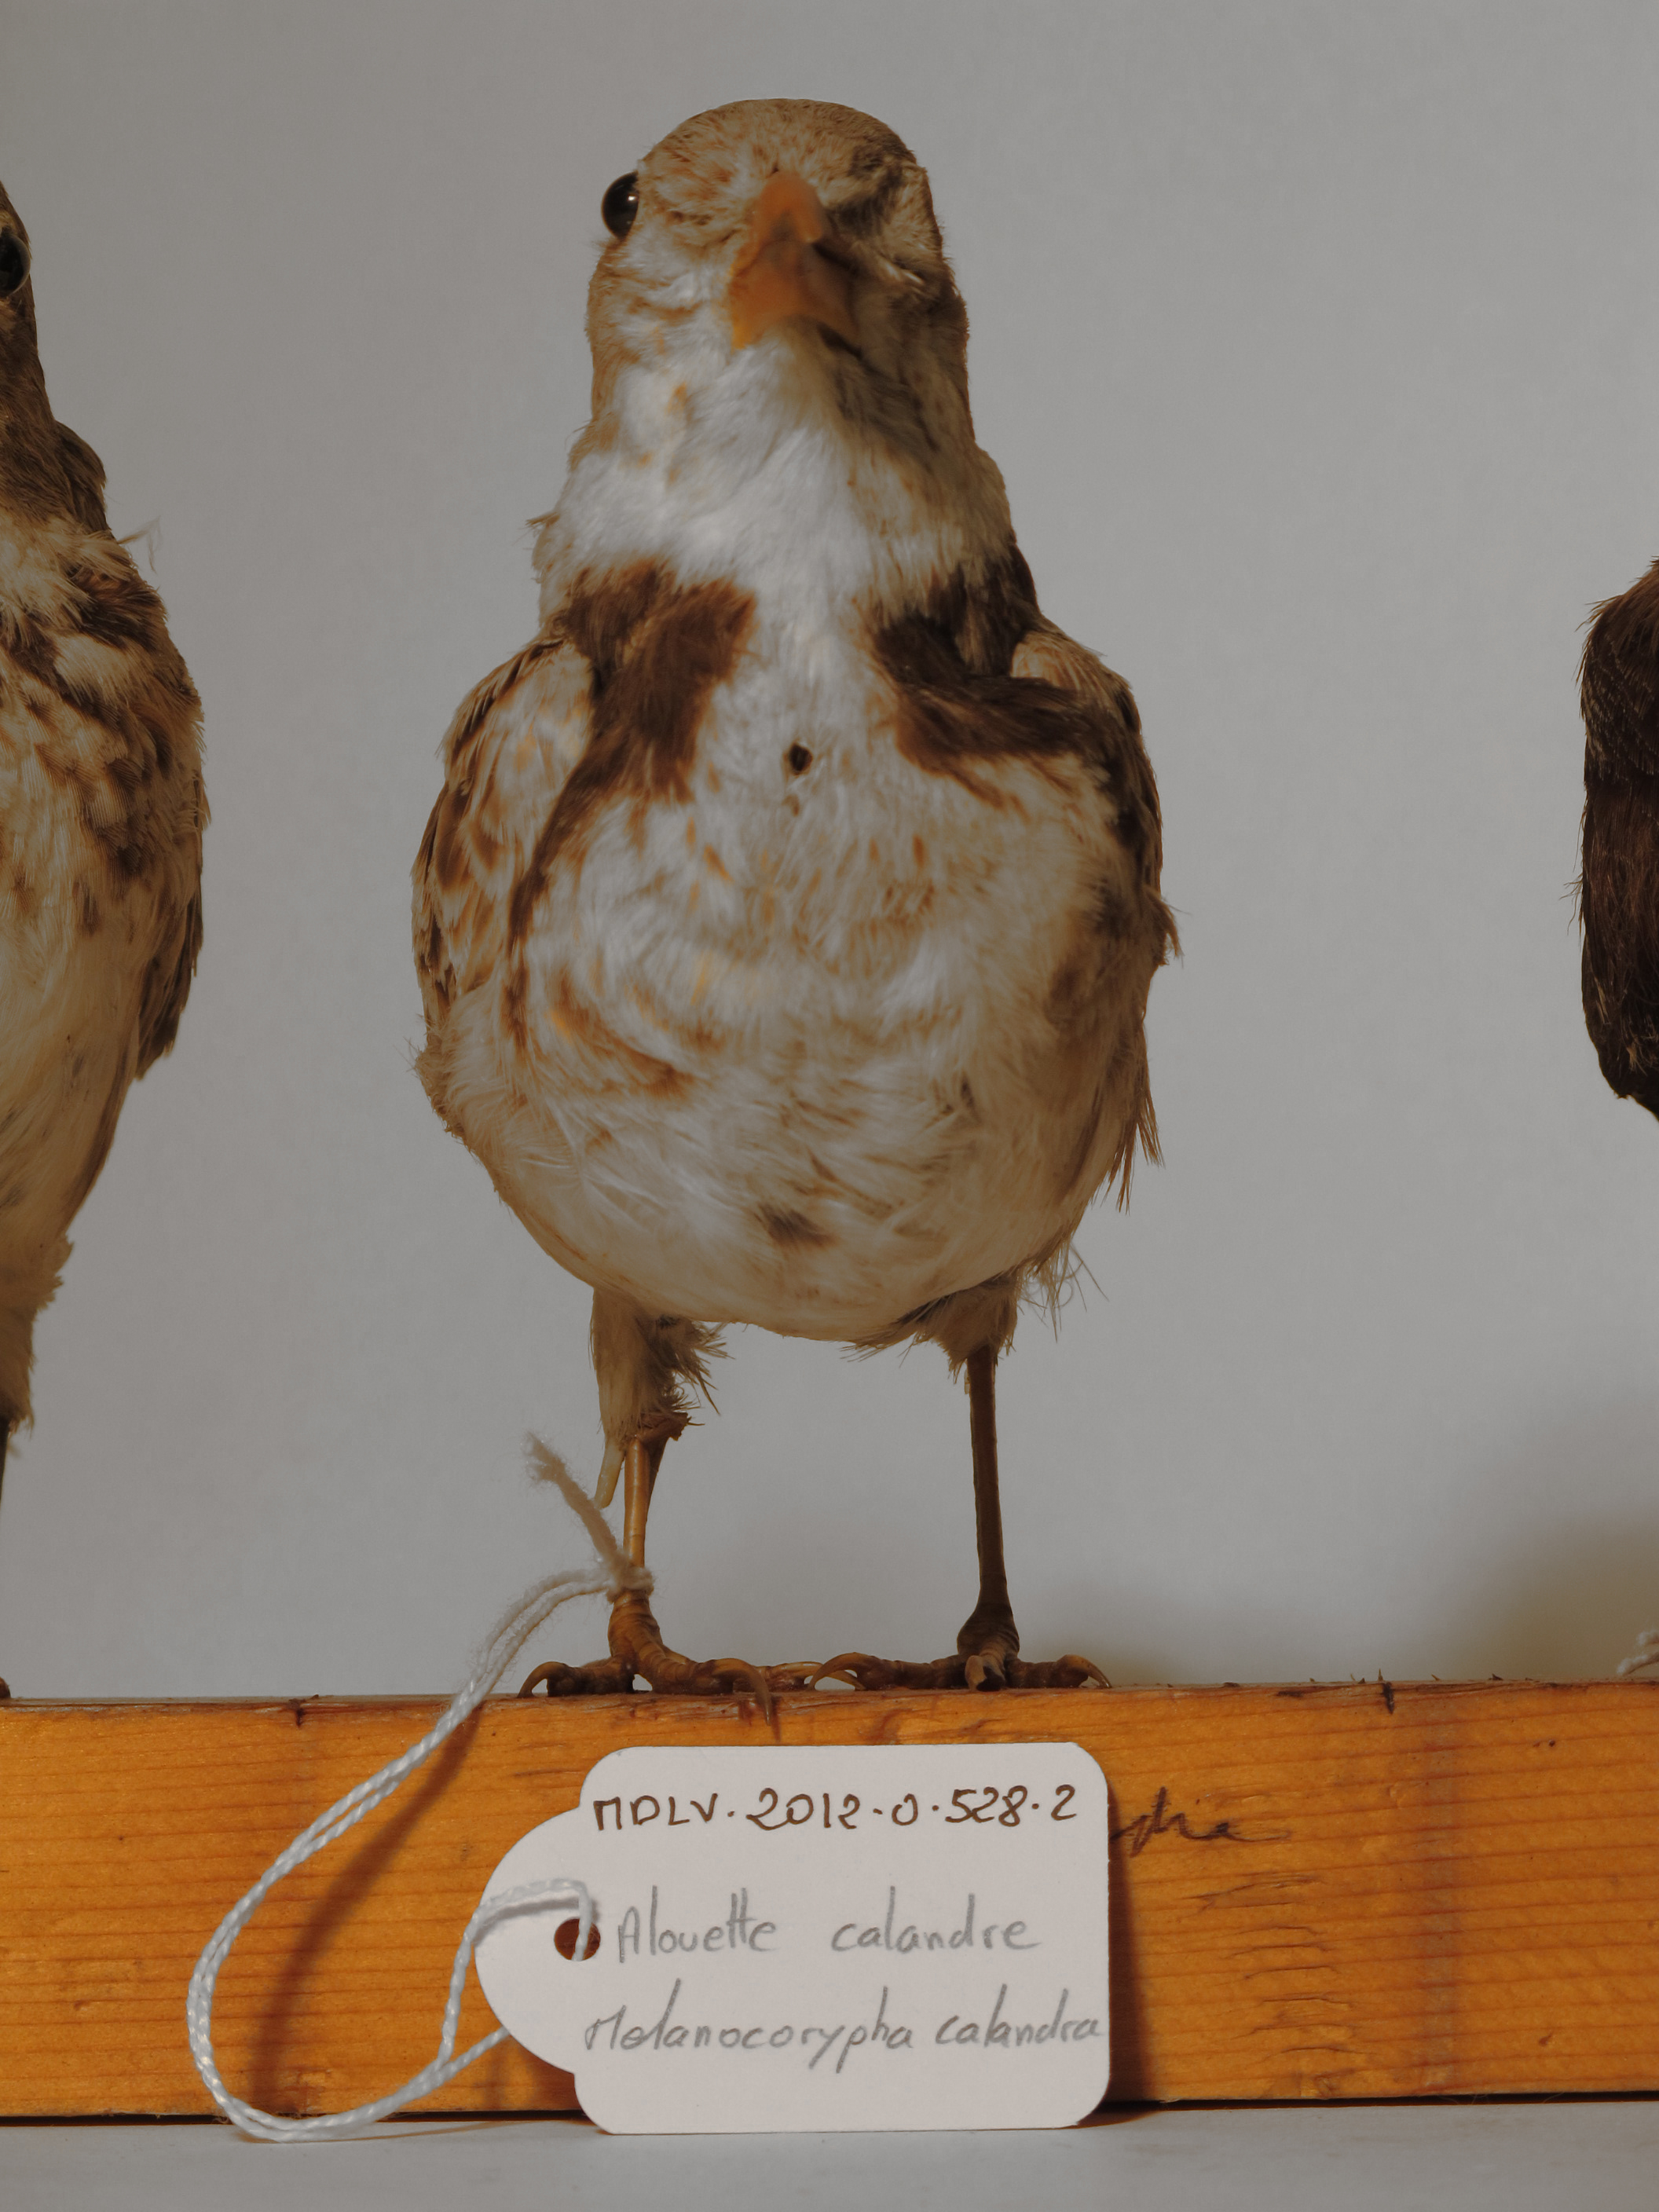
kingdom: Animalia
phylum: Chordata
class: Aves
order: Passeriformes
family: Alaudidae
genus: Melanocorypha
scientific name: Melanocorypha calandra
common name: Calandra Lark
